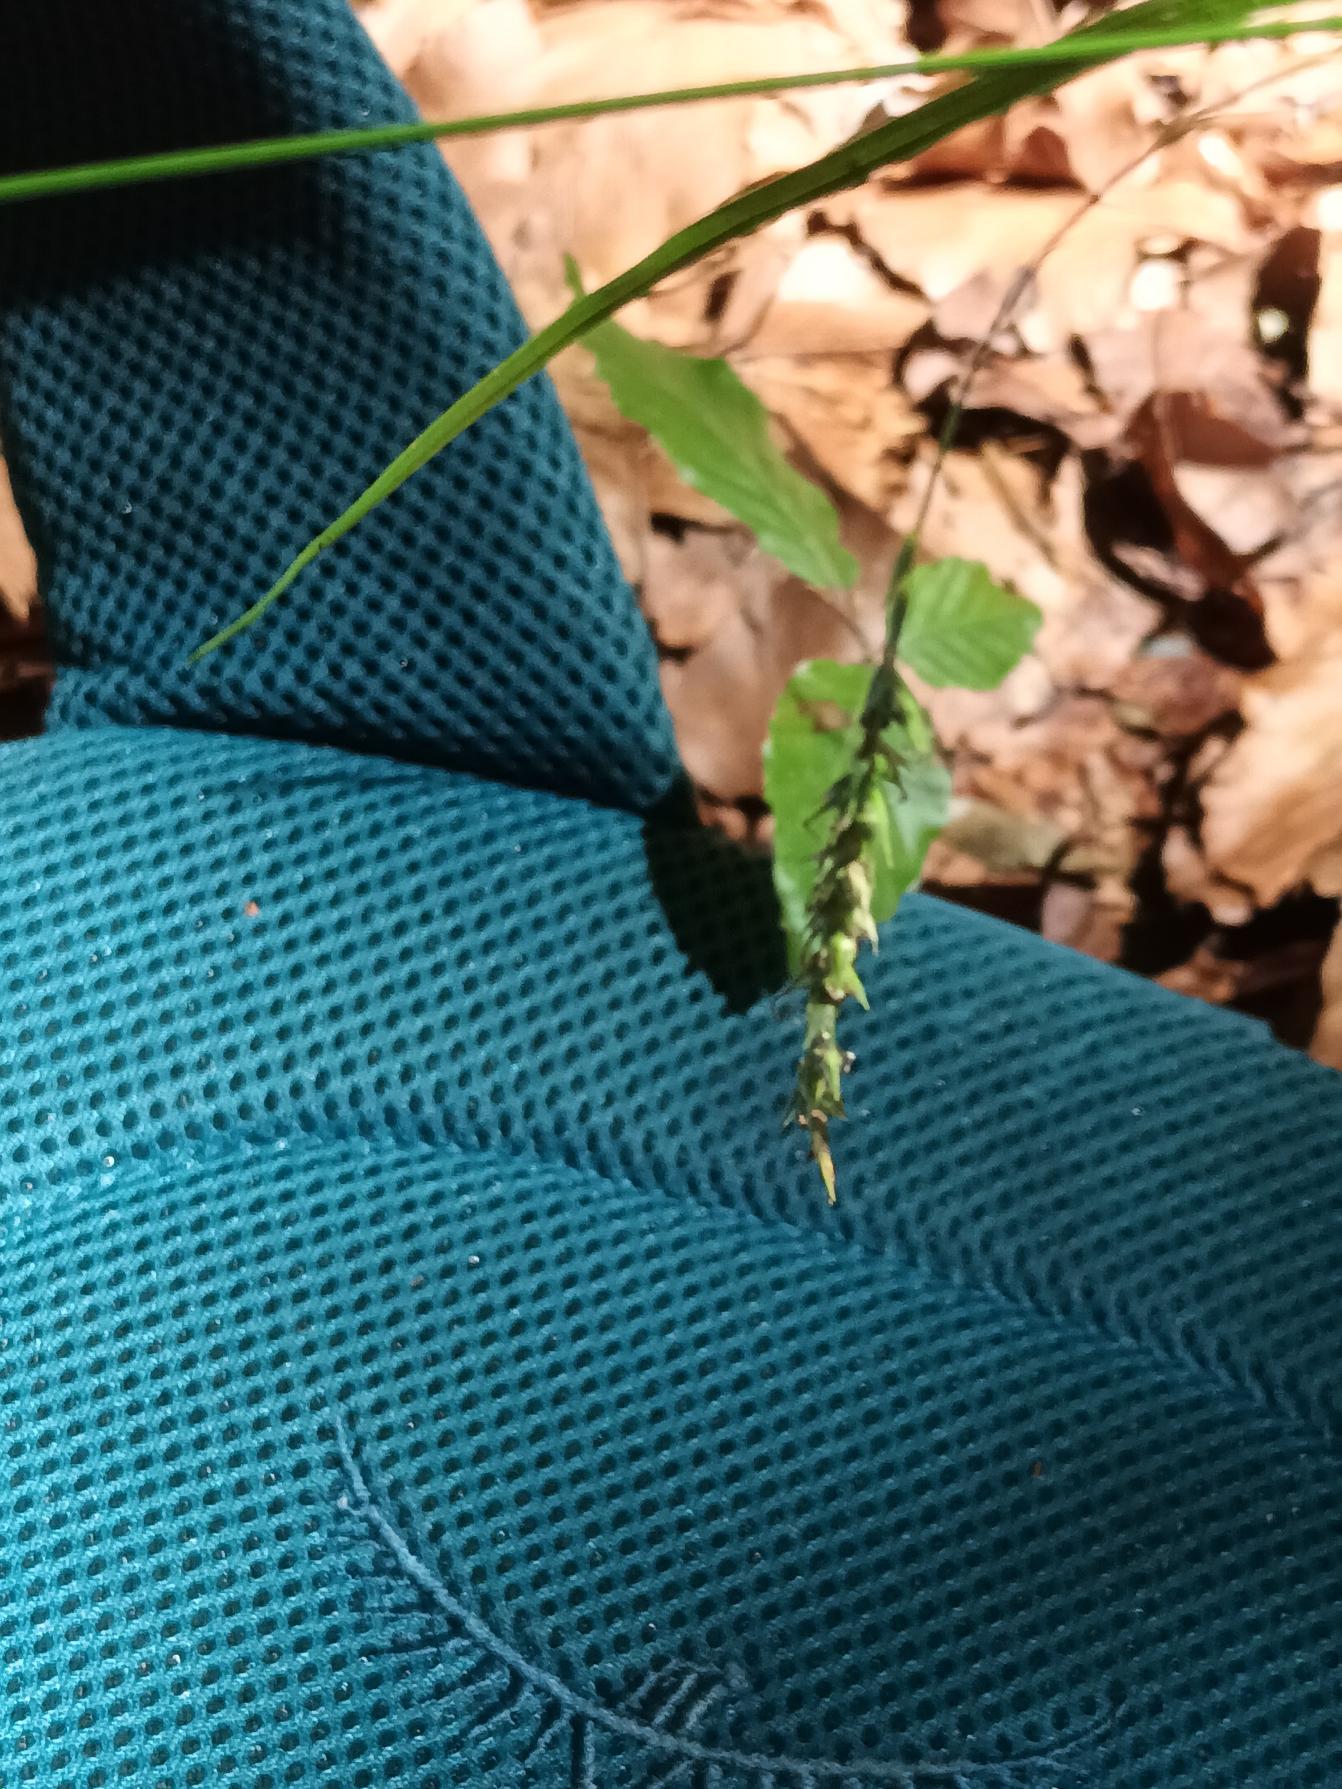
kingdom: Plantae
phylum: Tracheophyta
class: Liliopsida
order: Poales
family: Cyperaceae
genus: Carex
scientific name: Carex sylvatica
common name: Skov-star
